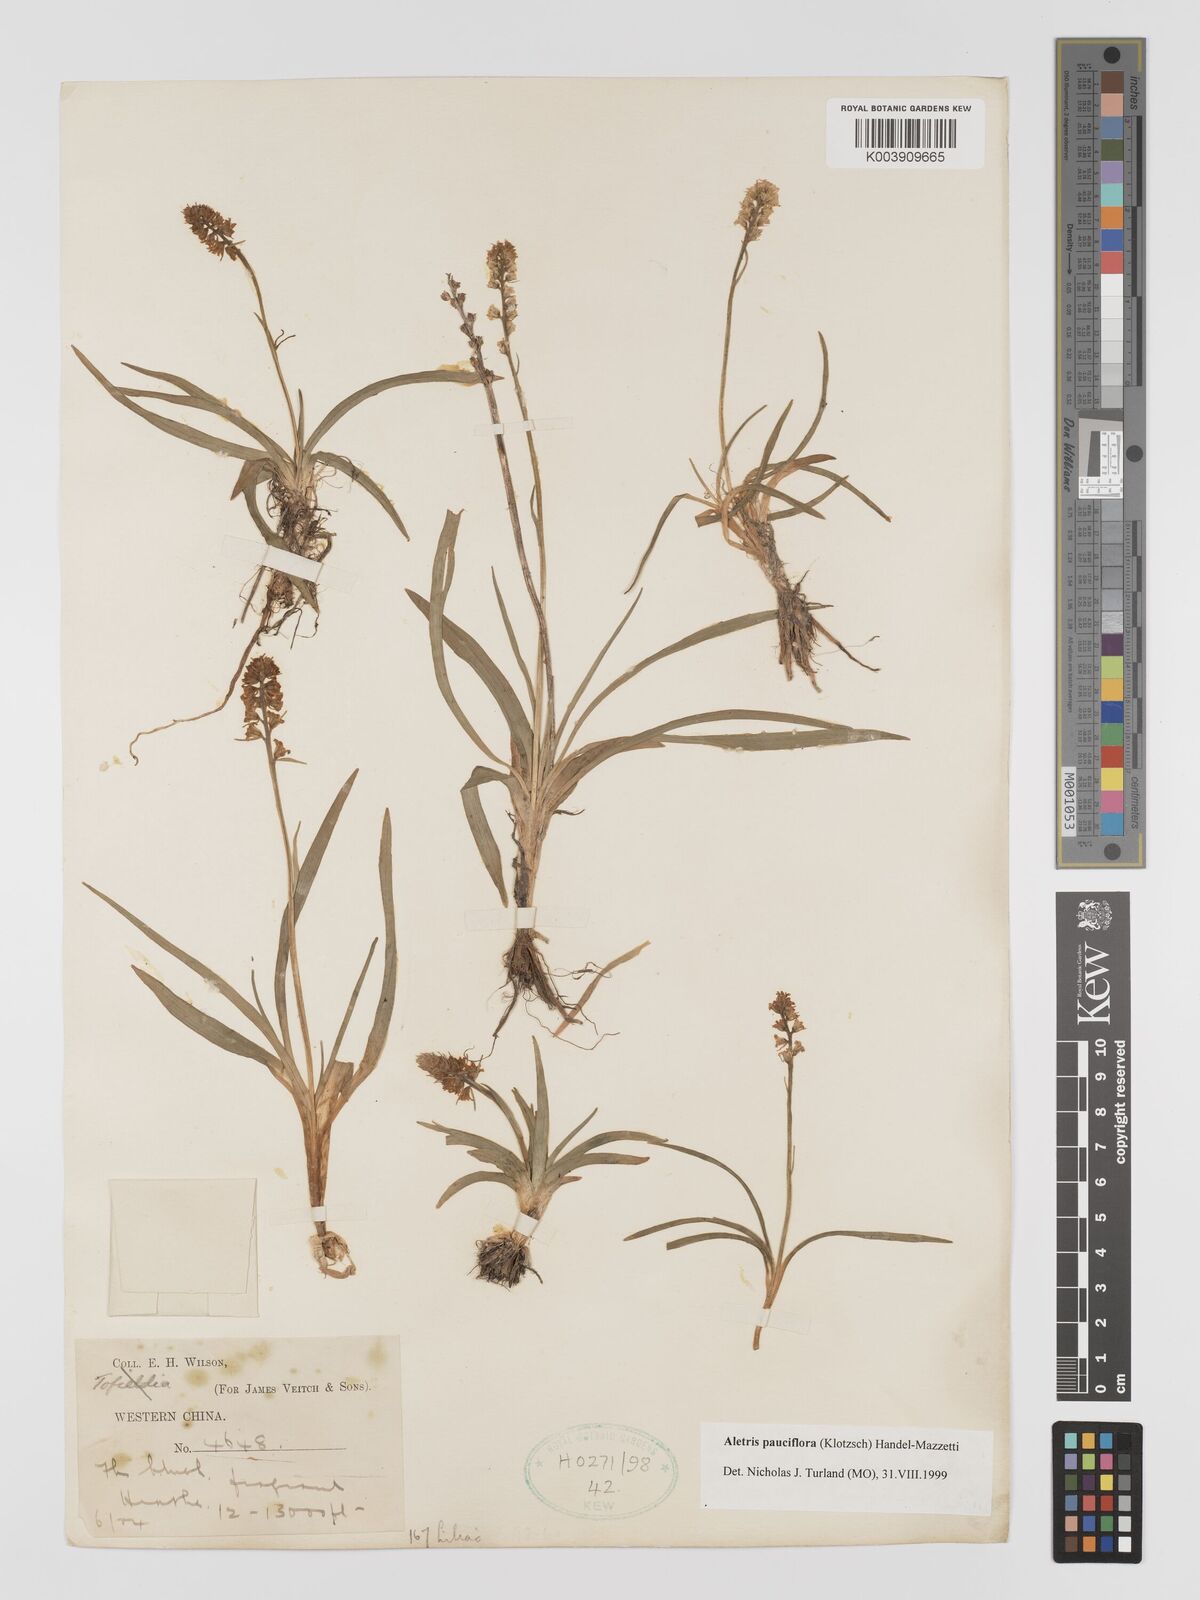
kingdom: Plantae
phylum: Tracheophyta
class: Liliopsida
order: Dioscoreales
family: Nartheciaceae
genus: Aletris
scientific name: Aletris pauciflora
